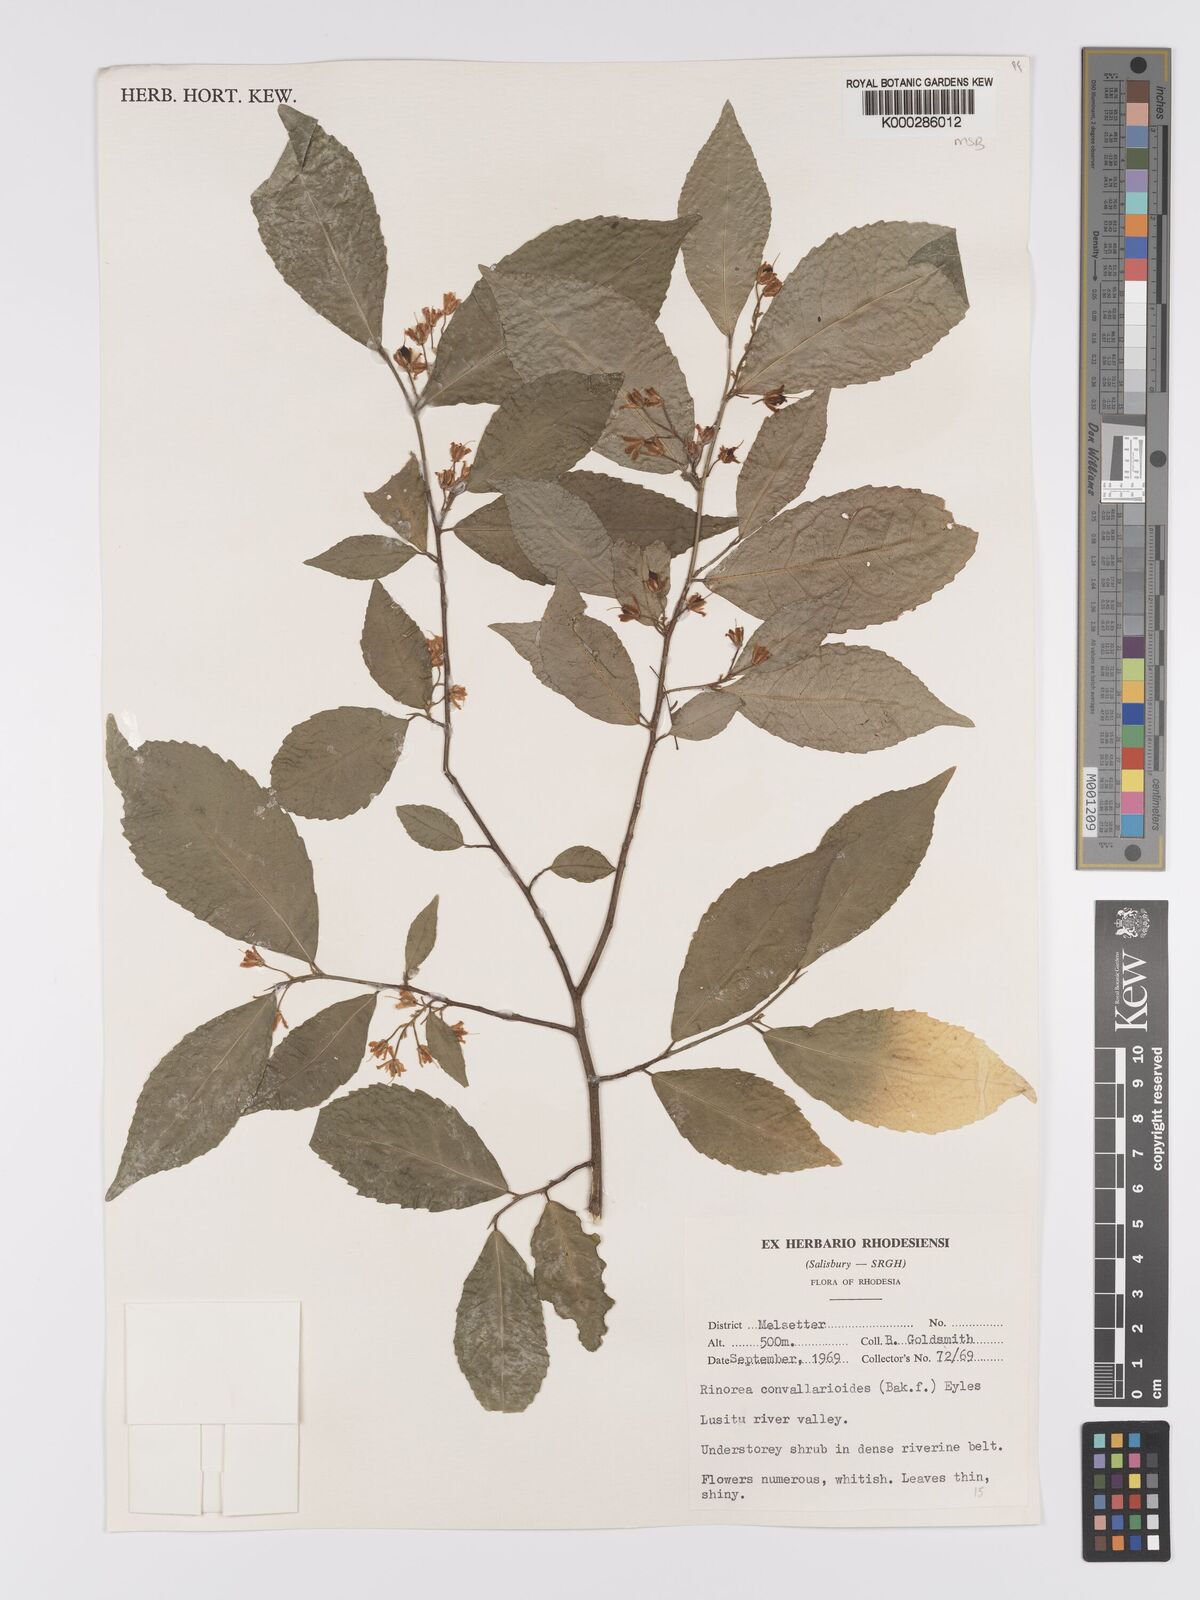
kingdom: Plantae
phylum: Tracheophyta
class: Magnoliopsida
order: Malpighiales
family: Violaceae
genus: Rinorea
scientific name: Rinorea convallarioides
